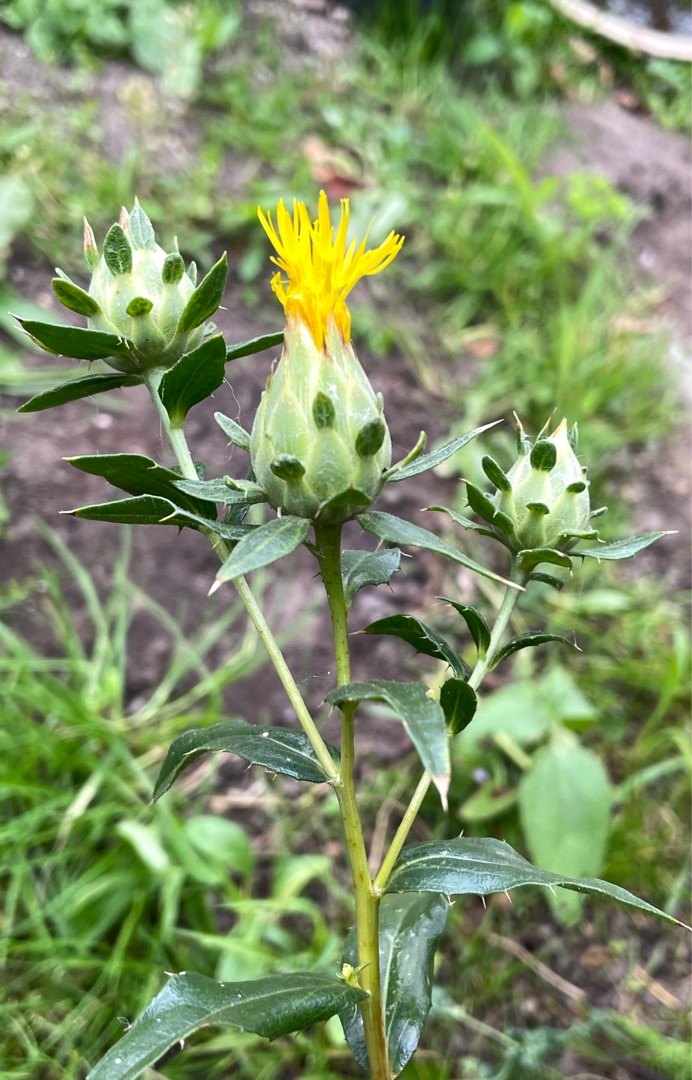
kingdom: Plantae
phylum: Tracheophyta
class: Magnoliopsida
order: Asterales
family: Asteraceae
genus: Carthamus
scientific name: Carthamus tinctorius
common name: Saflortidsel
